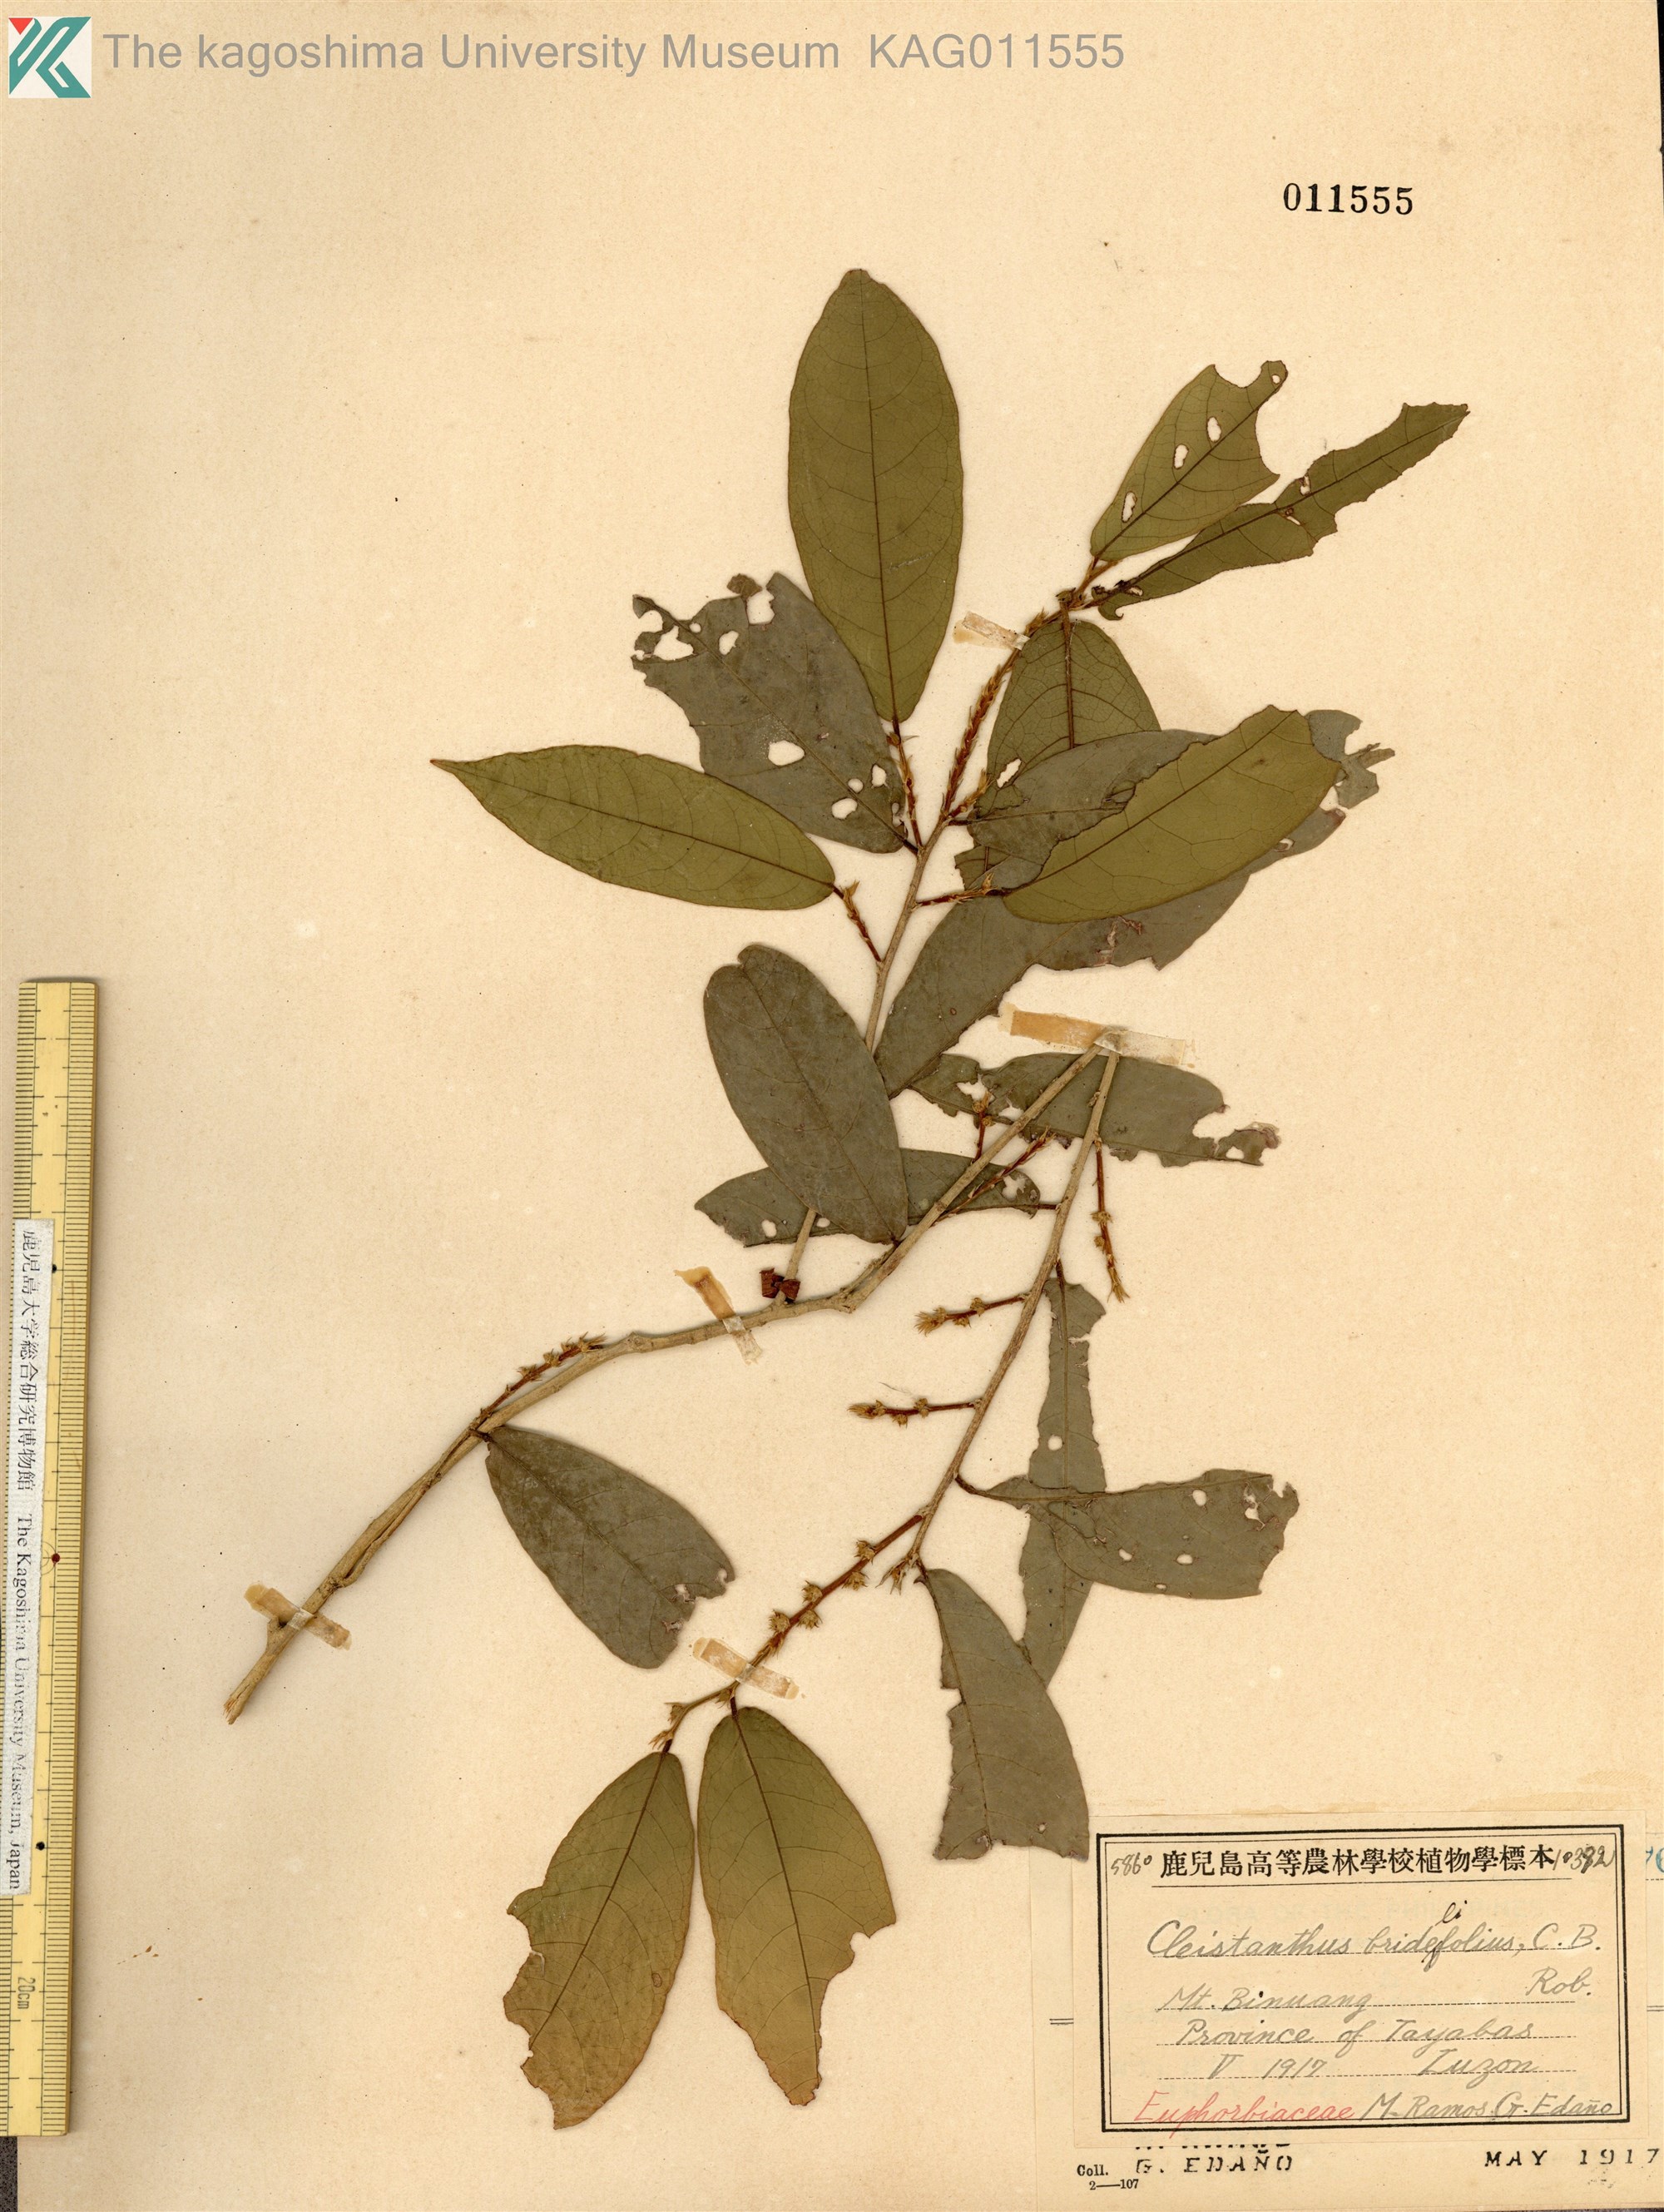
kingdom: Plantae
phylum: Tracheophyta
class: Magnoliopsida
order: Malpighiales
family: Phyllanthaceae
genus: Cleistanthus
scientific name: Cleistanthus brideliifolius
